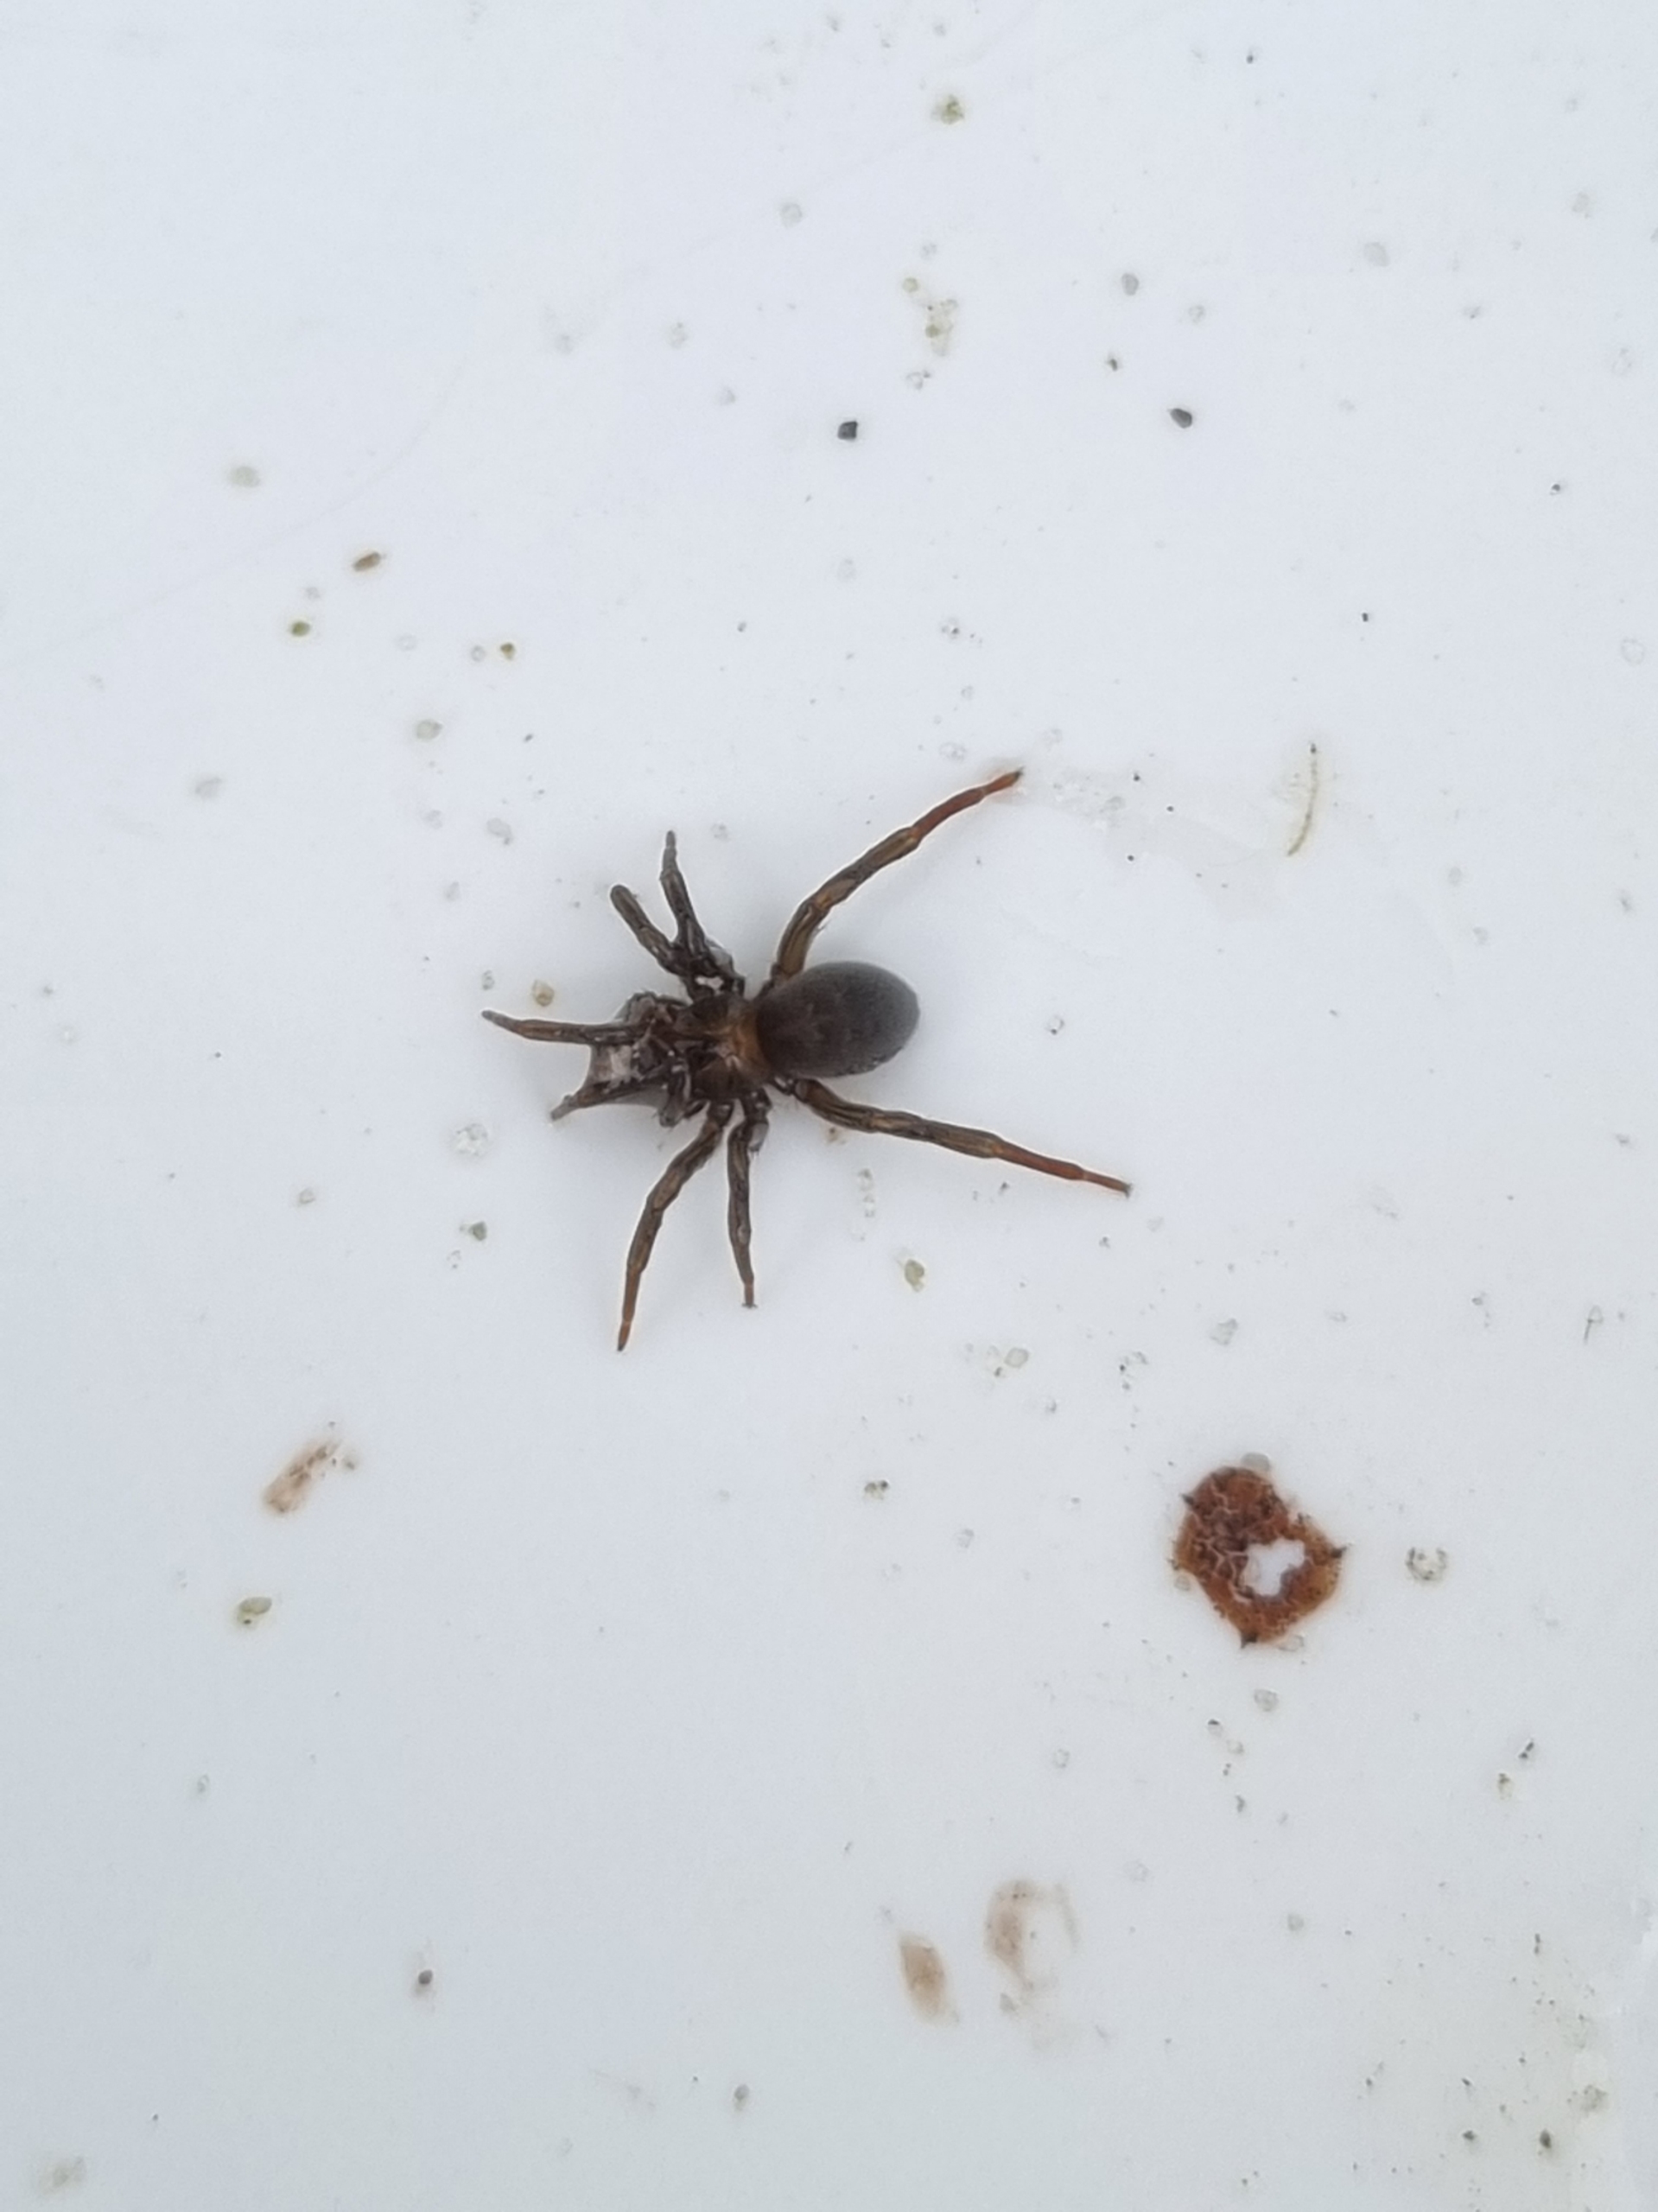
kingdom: Animalia
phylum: Arthropoda
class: Arachnida
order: Araneae
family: Dictynidae
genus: Argyroneta
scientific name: Argyroneta aquatica
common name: Vandedderkop
